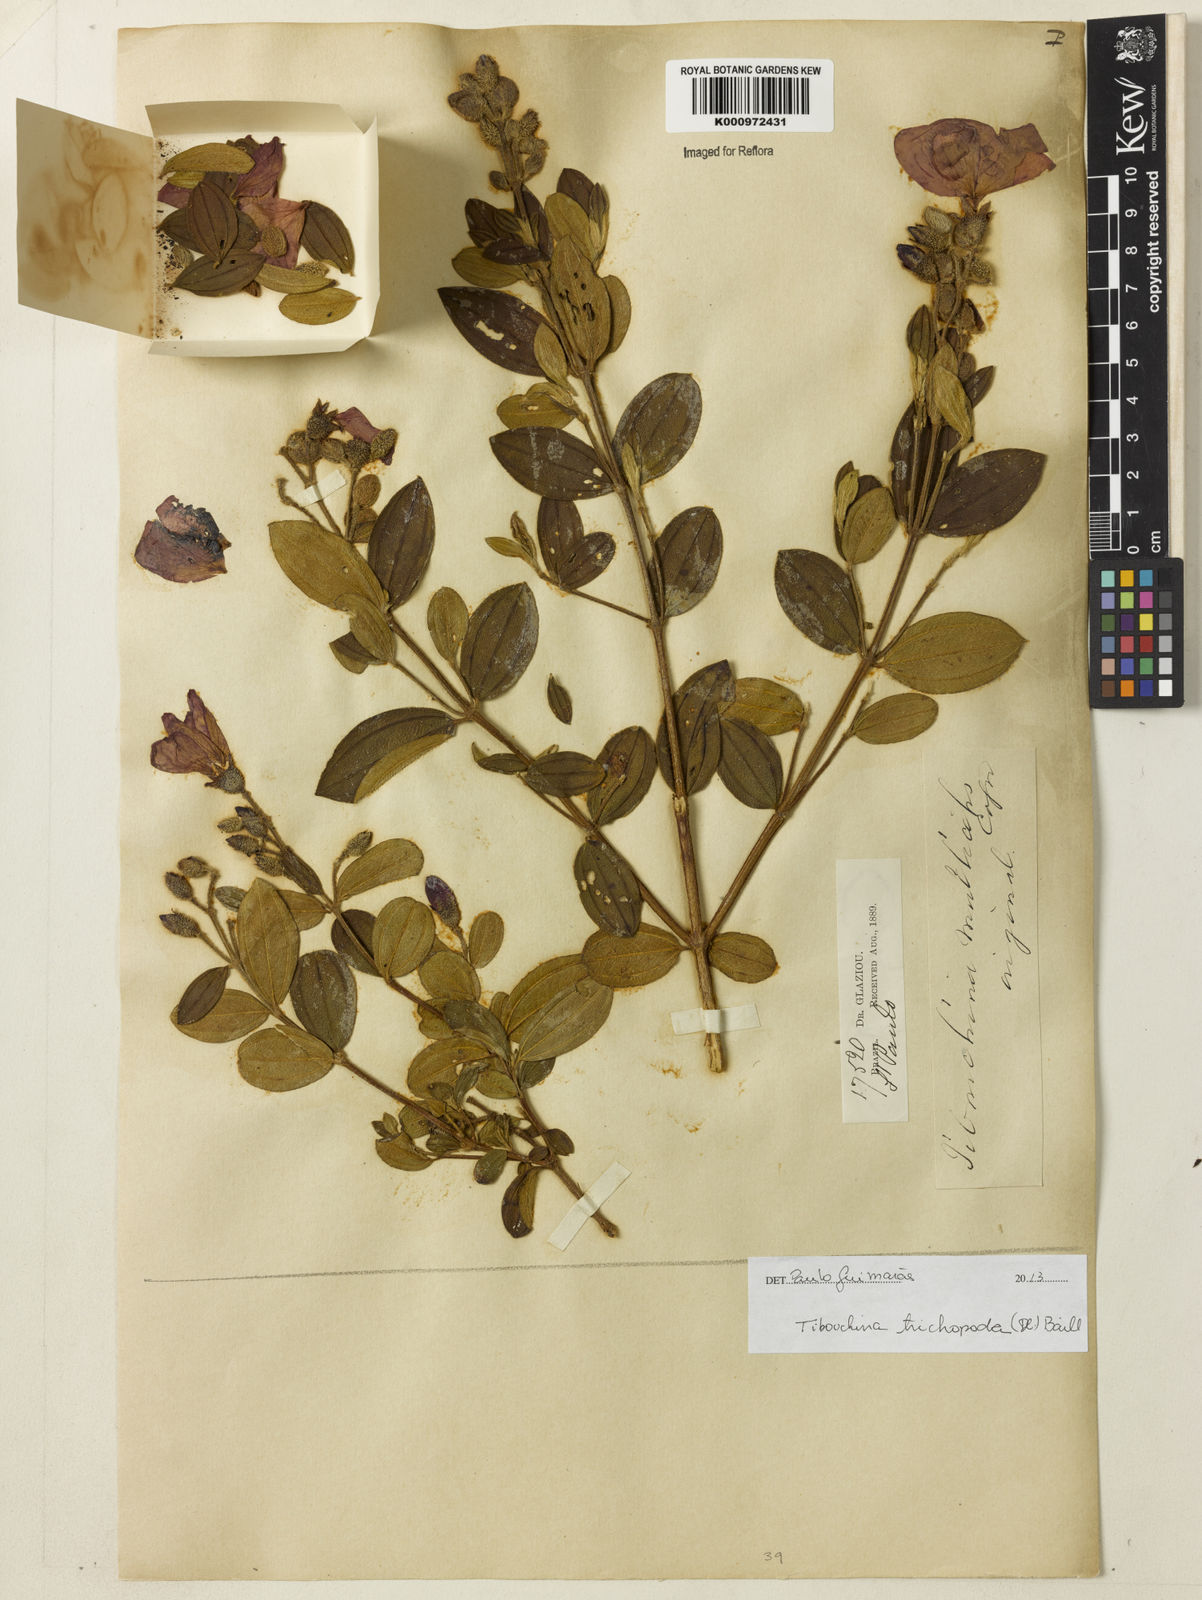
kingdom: Plantae
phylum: Tracheophyta
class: Magnoliopsida
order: Myrtales
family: Melastomataceae
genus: Pleroma
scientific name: Pleroma trichopodum
